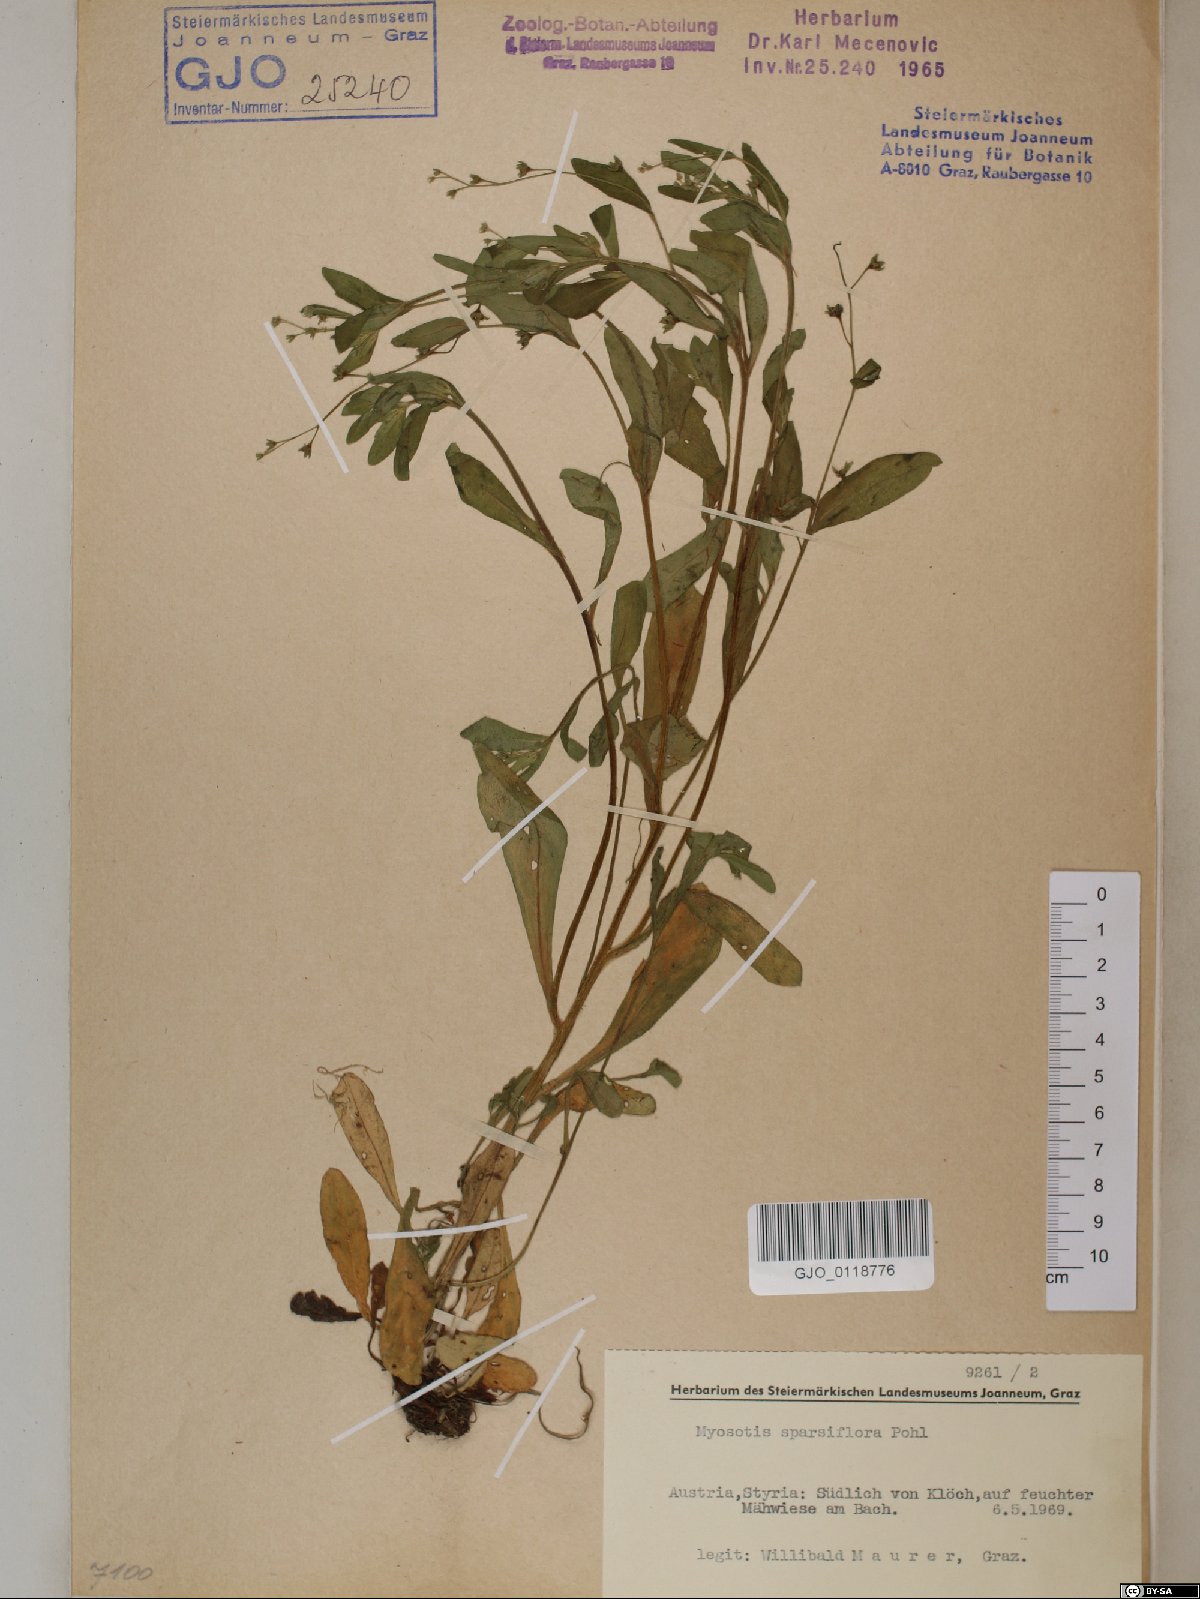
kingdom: Plantae
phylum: Tracheophyta
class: Magnoliopsida
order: Boraginales
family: Boraginaceae
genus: Myosotis
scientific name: Myosotis sparsiflora
